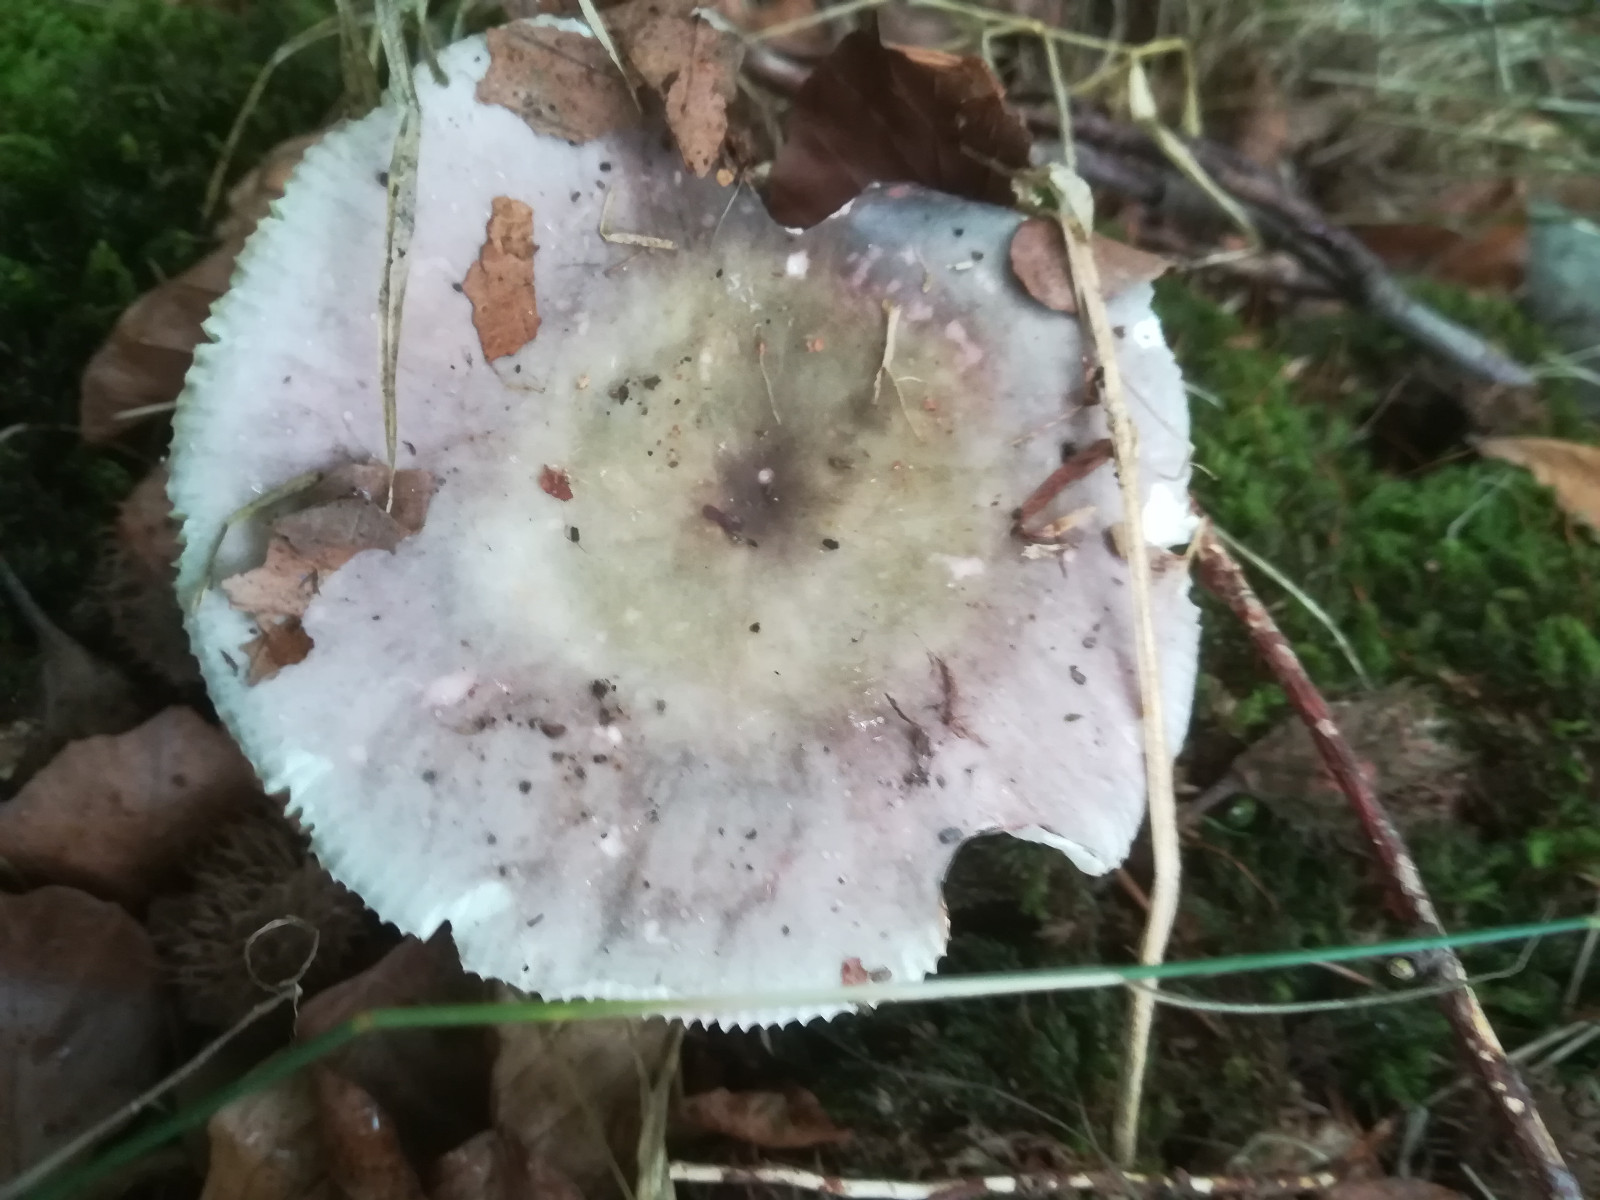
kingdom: Fungi
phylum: Basidiomycota
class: Agaricomycetes
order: Russulales
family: Russulaceae
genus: Russula
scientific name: Russula cyanoxantha
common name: broget skørhat
